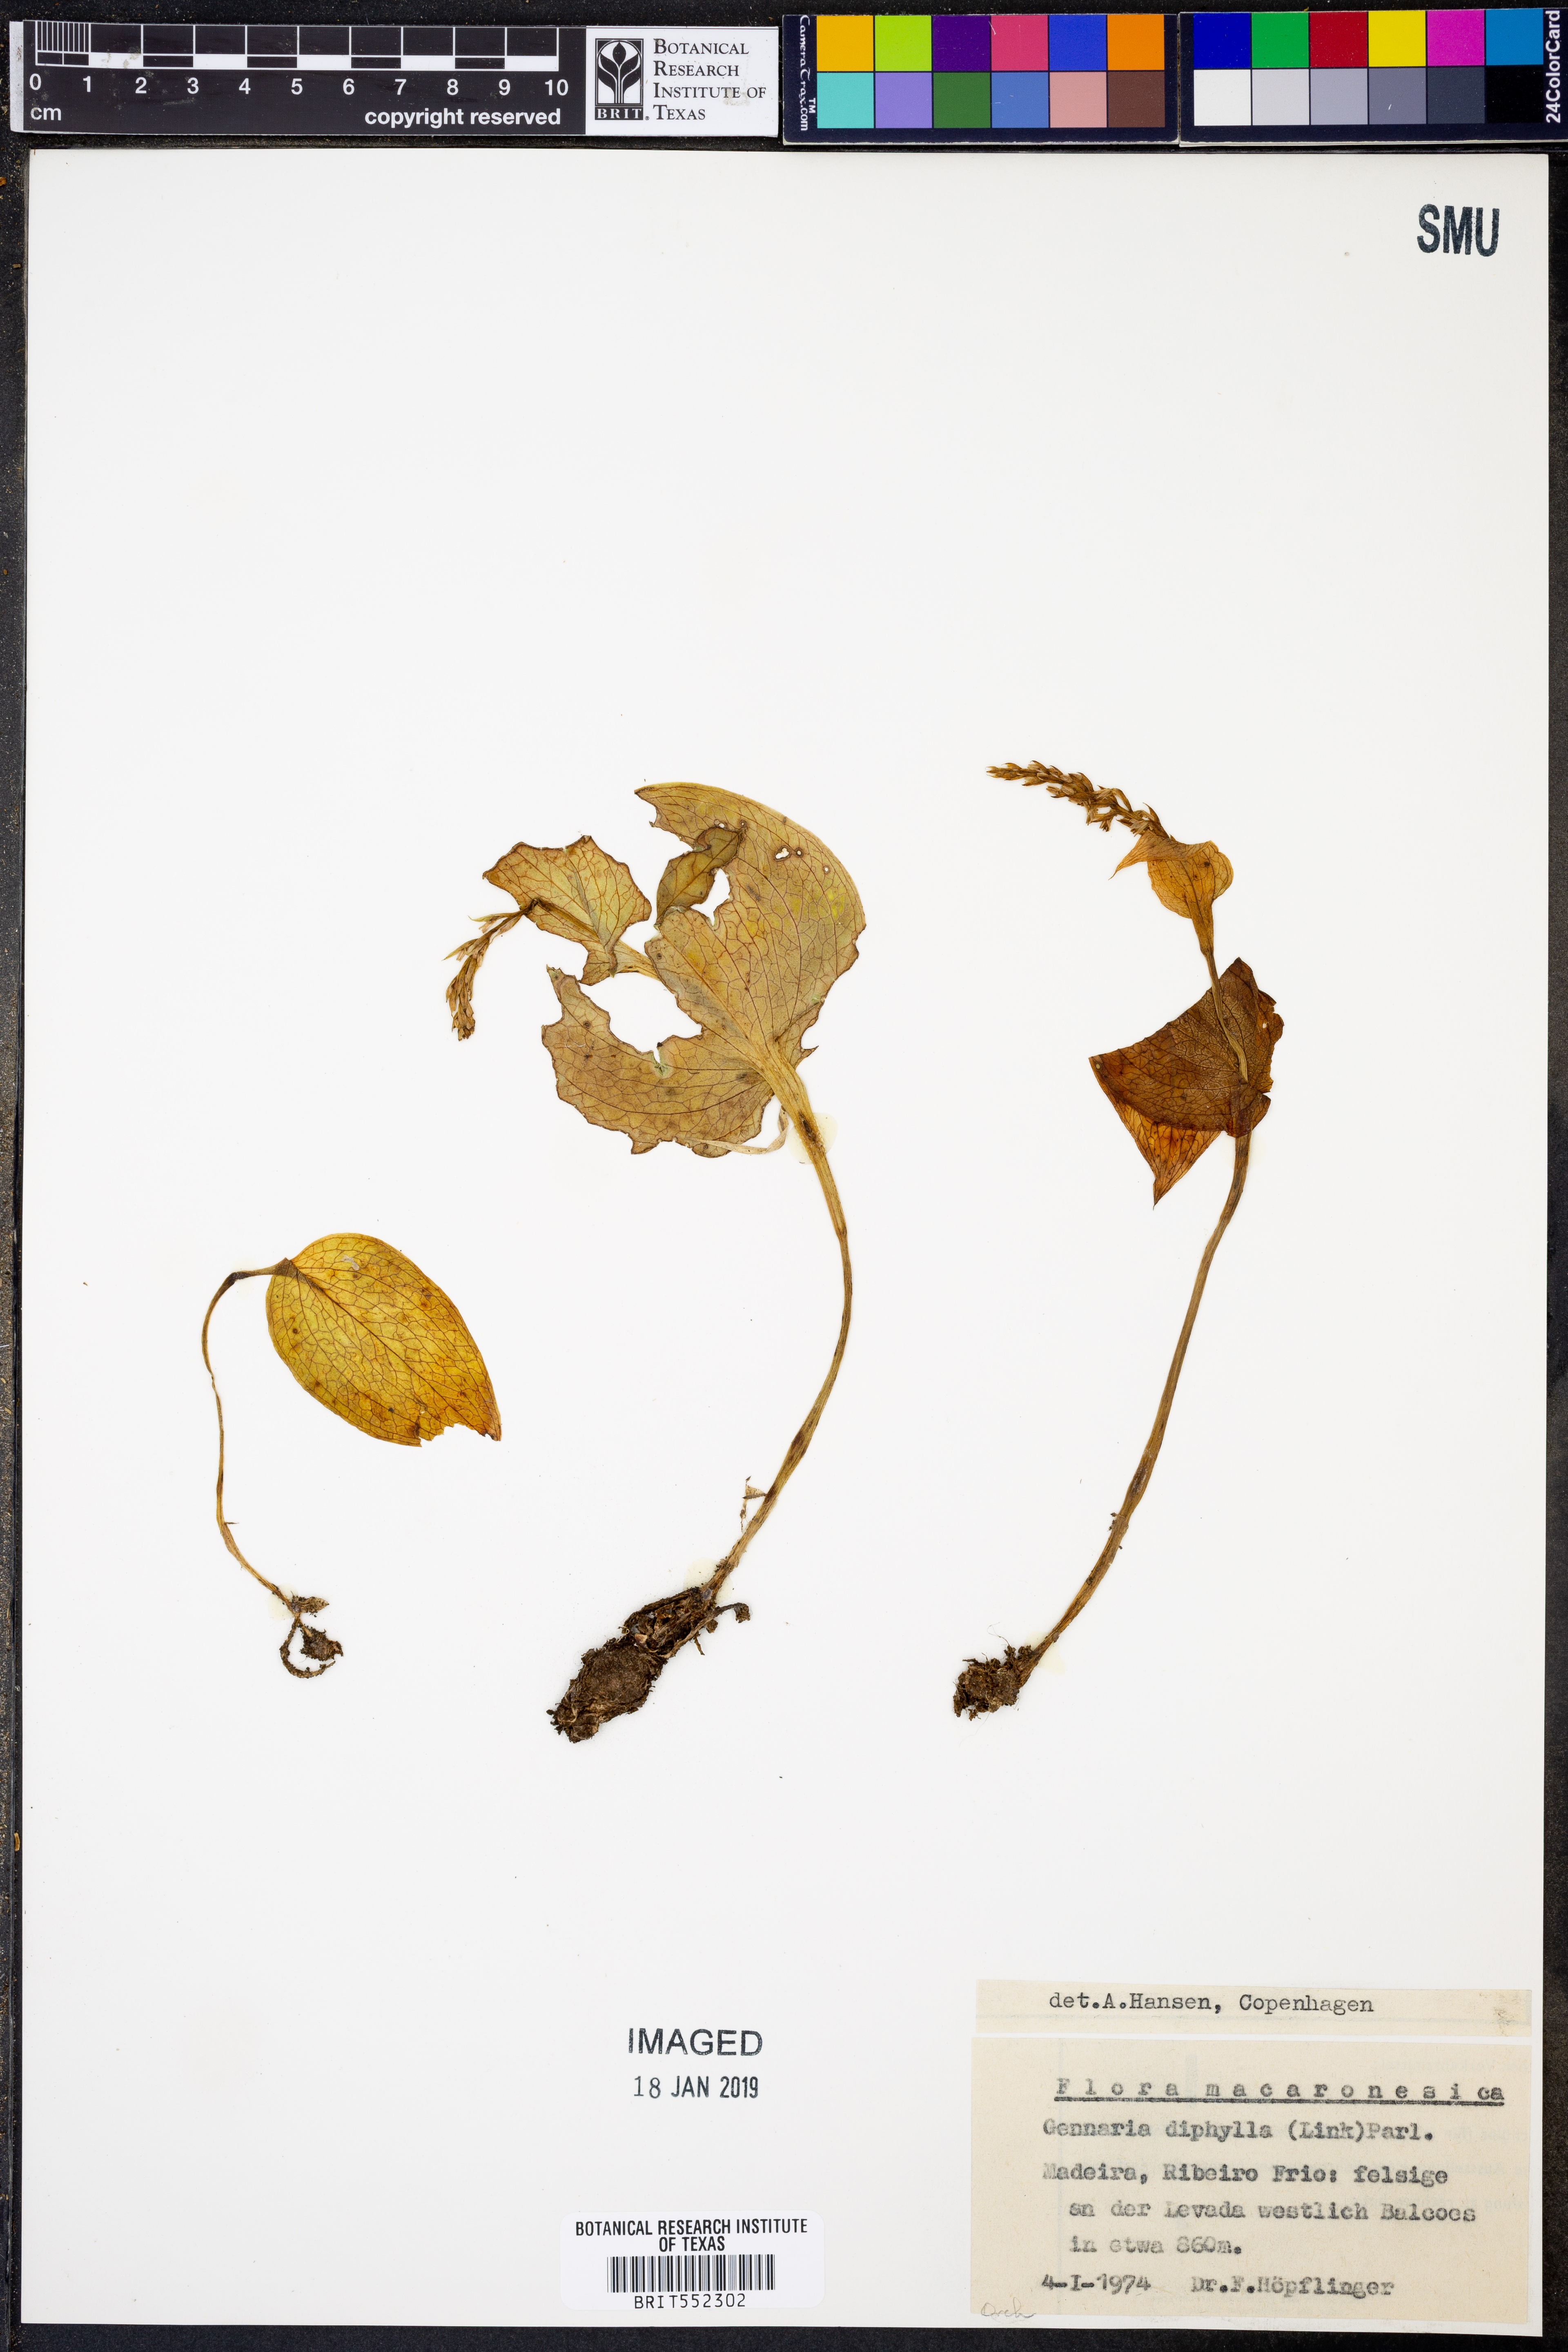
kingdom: Plantae
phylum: Tracheophyta
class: Liliopsida
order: Asparagales
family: Orchidaceae
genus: Gennaria
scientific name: Gennaria diphylla
